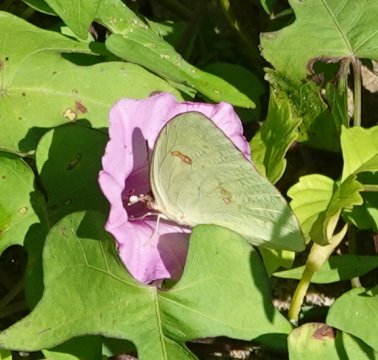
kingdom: Animalia
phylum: Arthropoda
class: Insecta
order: Lepidoptera
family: Pieridae
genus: Phoebis
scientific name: Phoebis sennae
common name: Cloudless Sulphur
